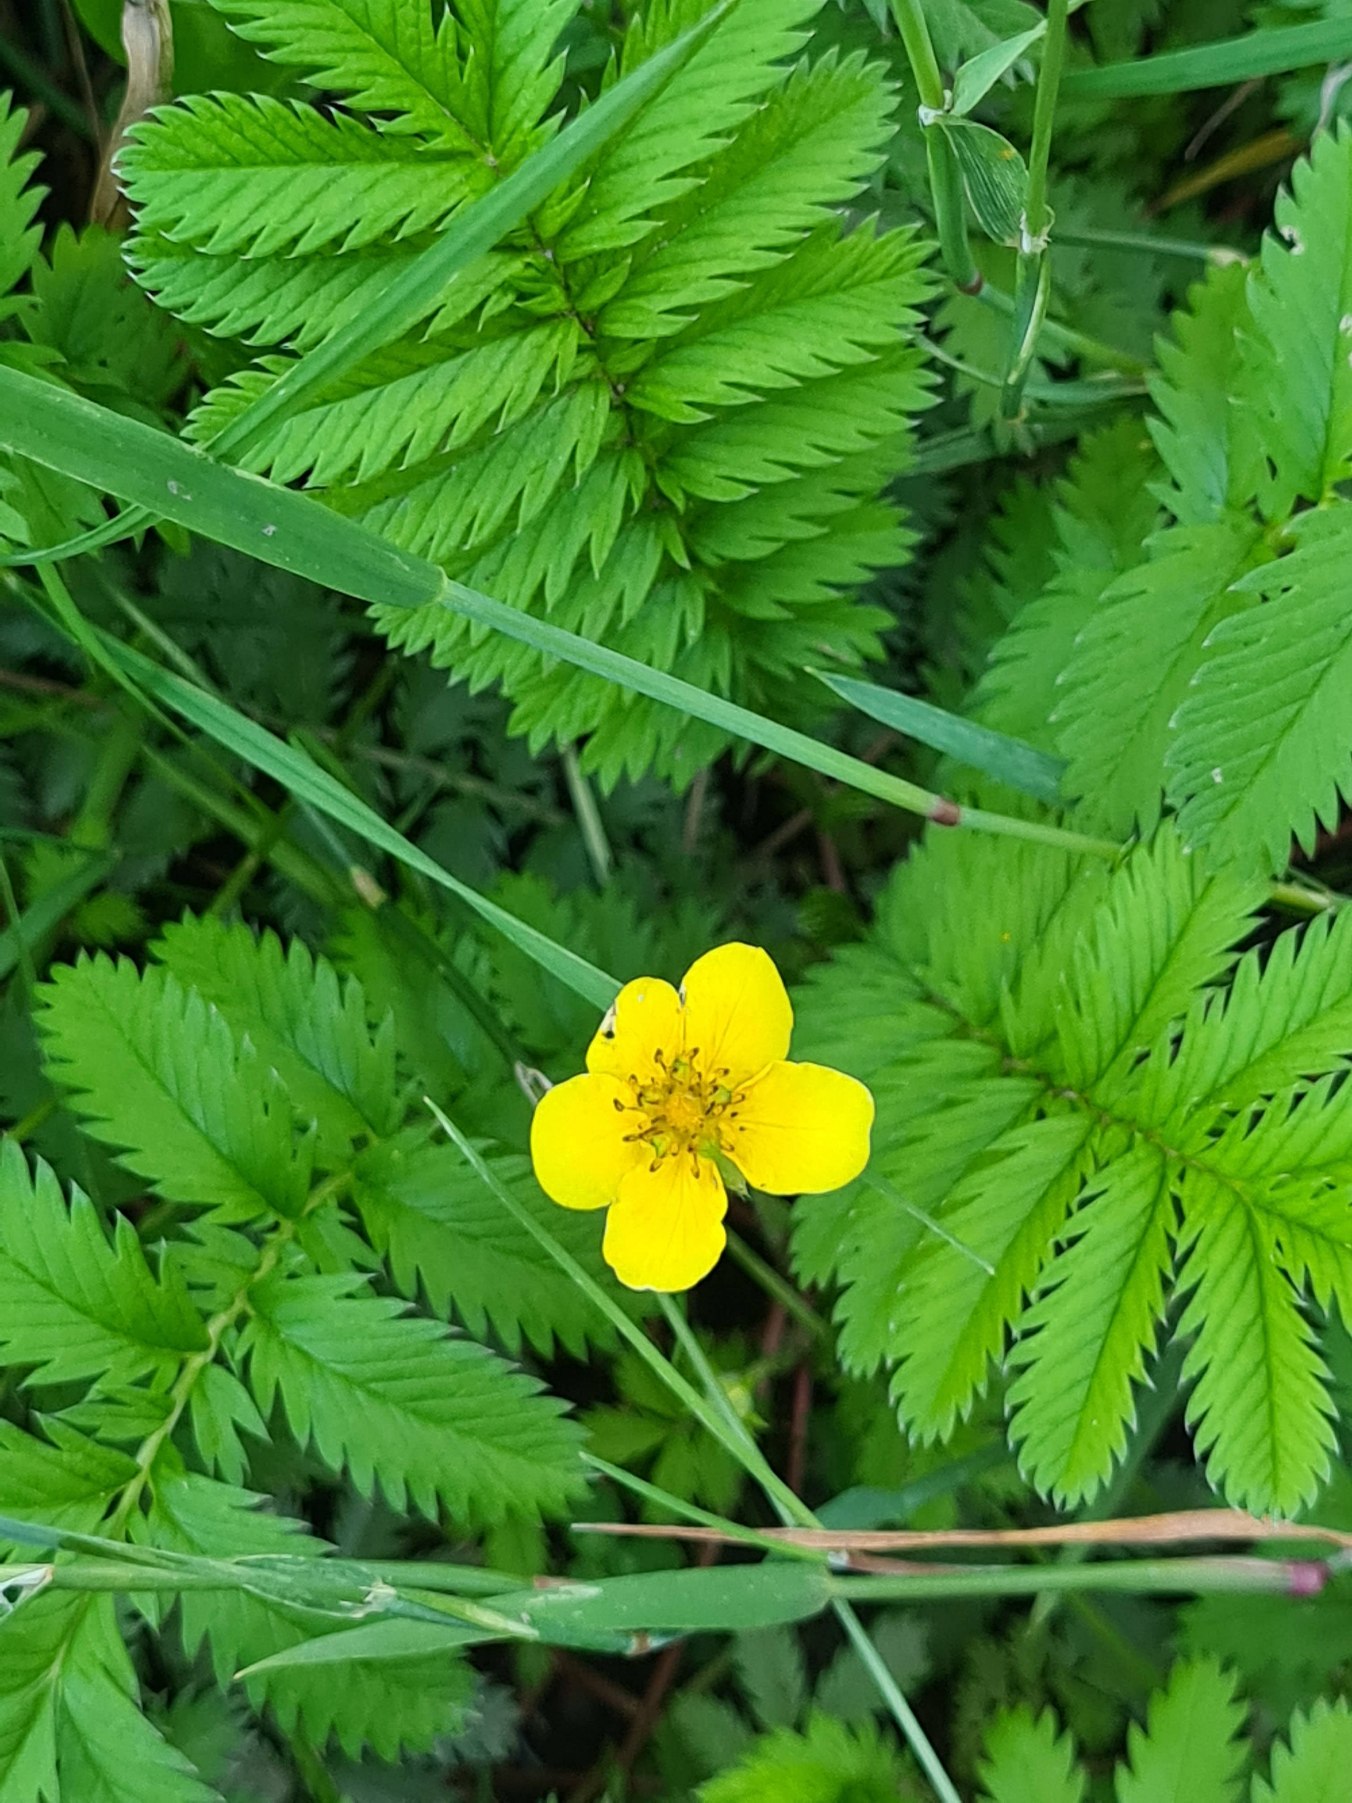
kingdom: Plantae
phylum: Tracheophyta
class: Magnoliopsida
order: Rosales
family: Rosaceae
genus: Argentina
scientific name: Argentina anserina
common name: Gåsepotentil
